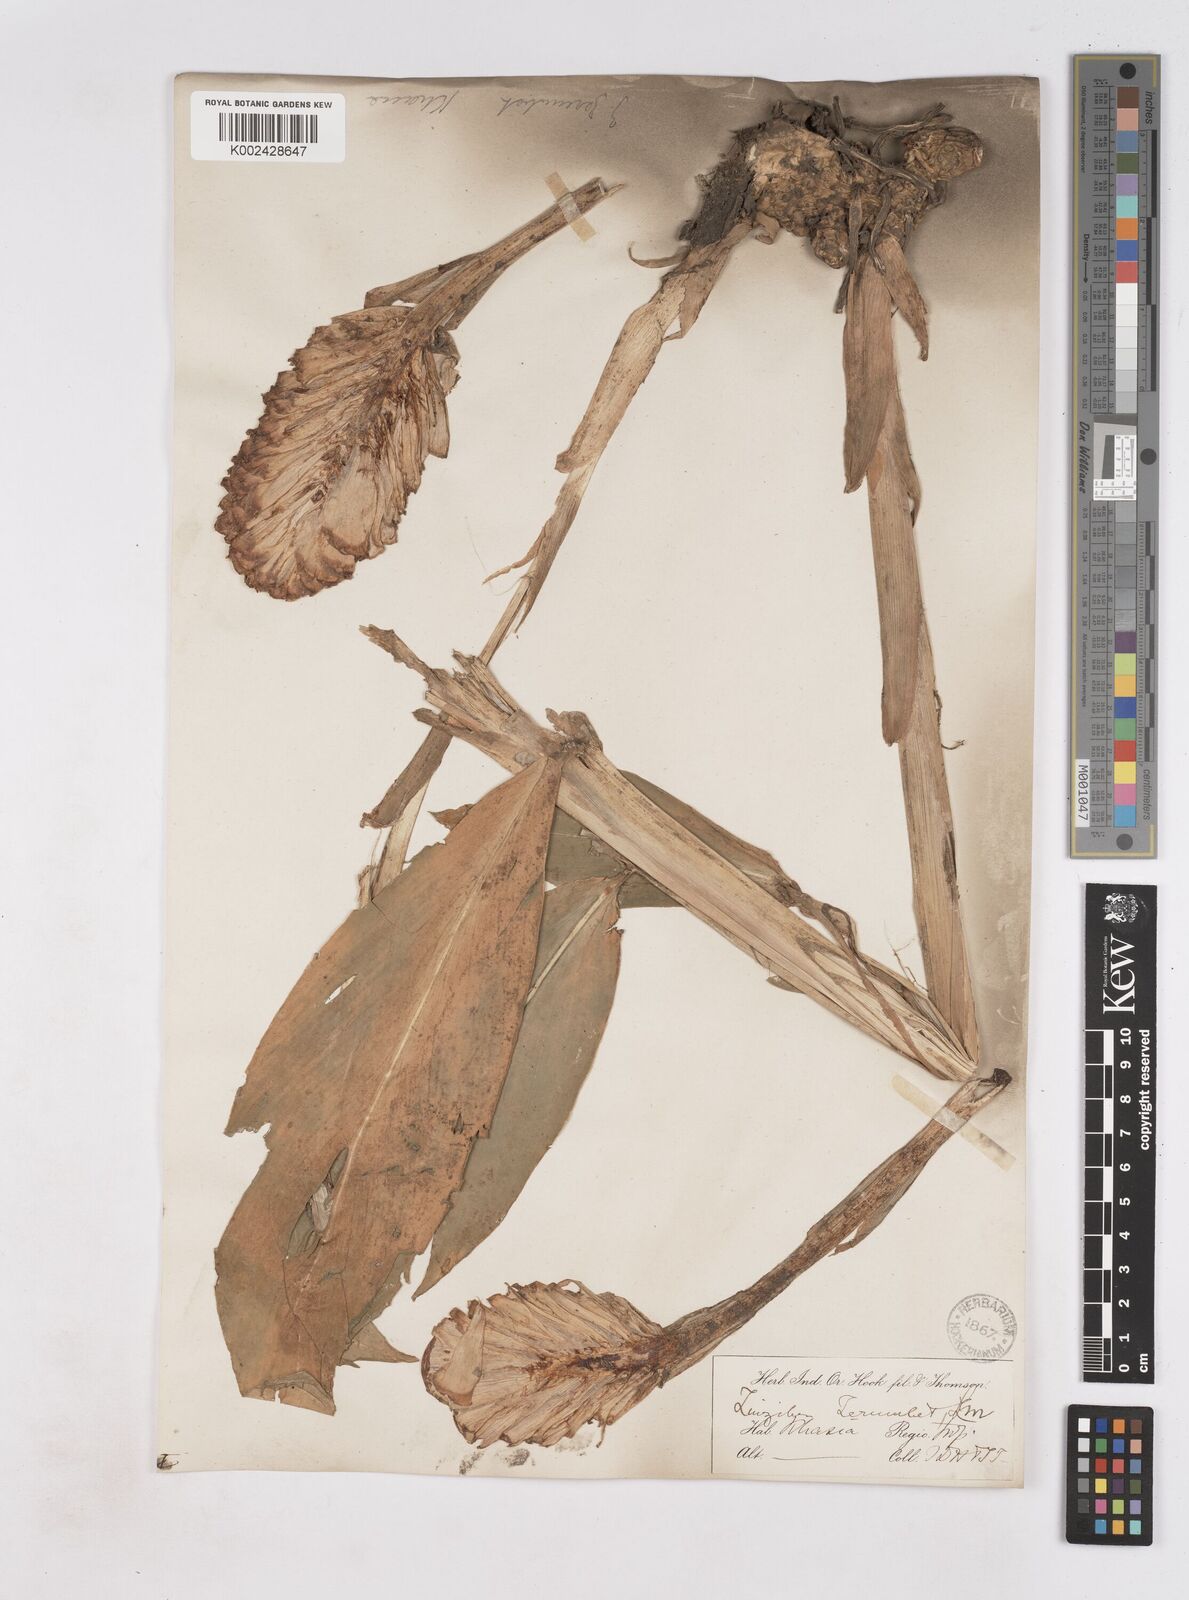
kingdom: Plantae
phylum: Tracheophyta
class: Liliopsida
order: Zingiberales
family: Zingiberaceae
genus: Zingiber
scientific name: Zingiber zerumbet
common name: Bitter ginger
